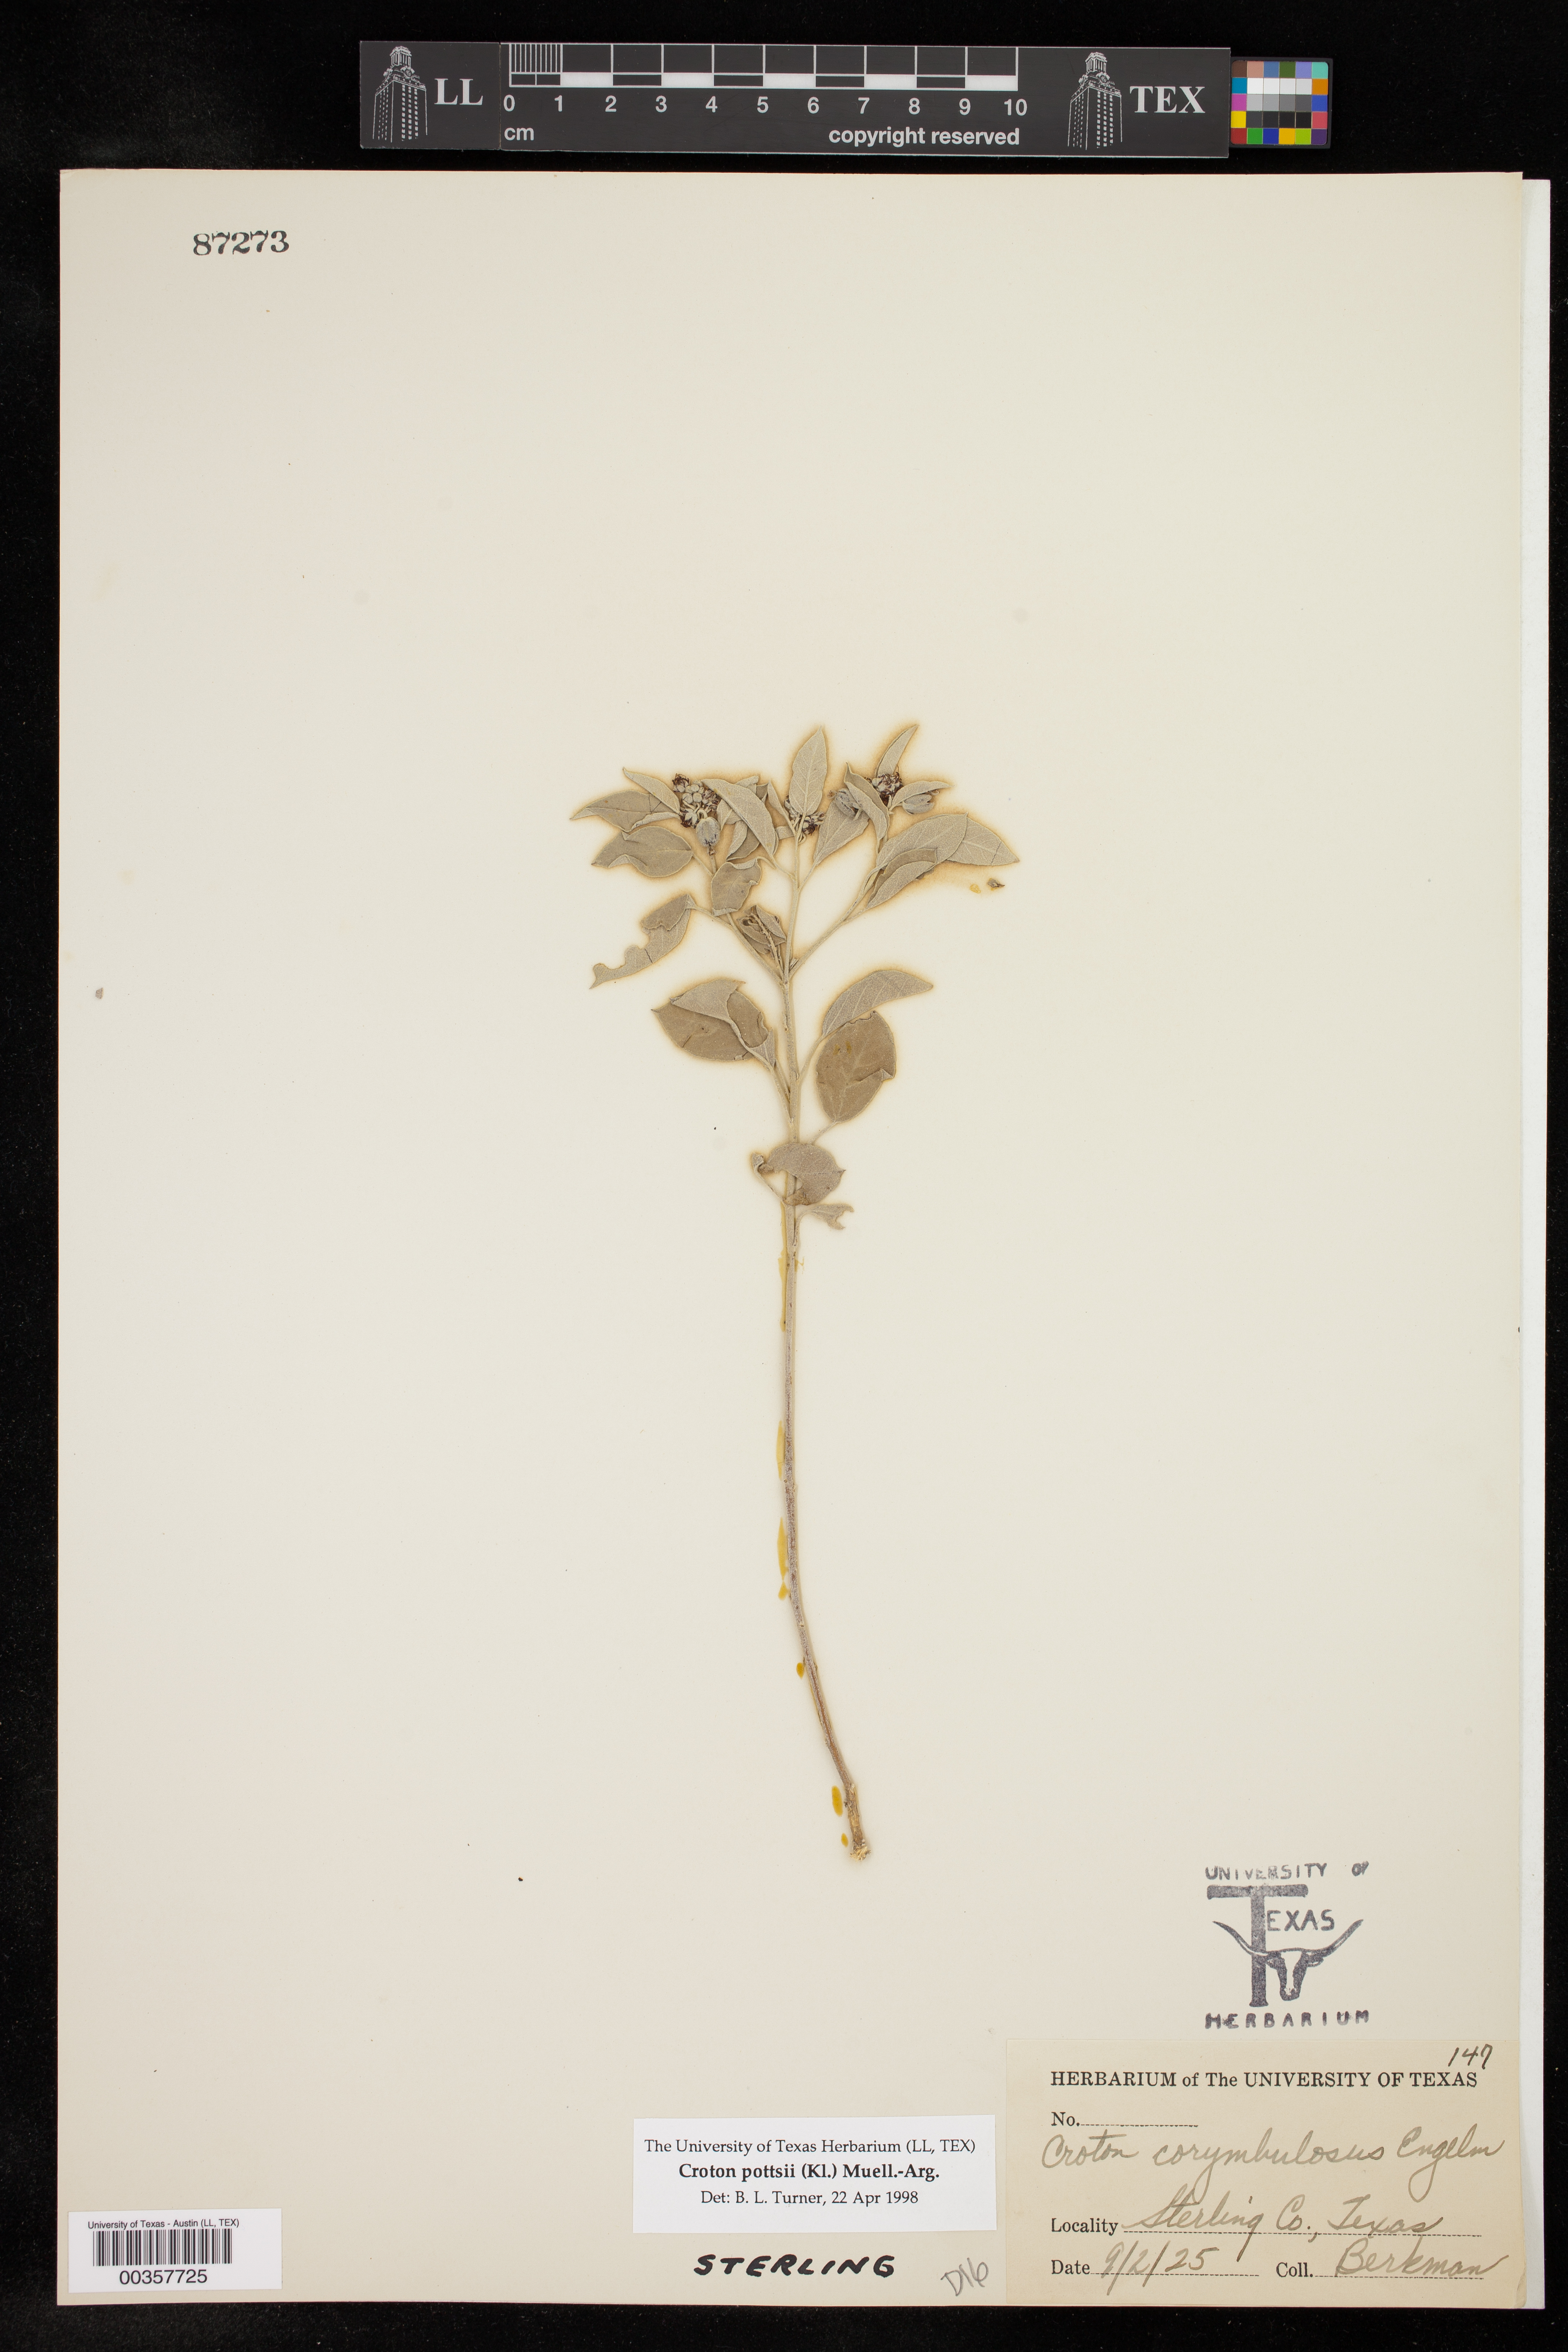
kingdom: Plantae
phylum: Tracheophyta
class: Magnoliopsida
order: Malpighiales
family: Euphorbiaceae
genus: Croton
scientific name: Croton pottsii
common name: Leatherweed
